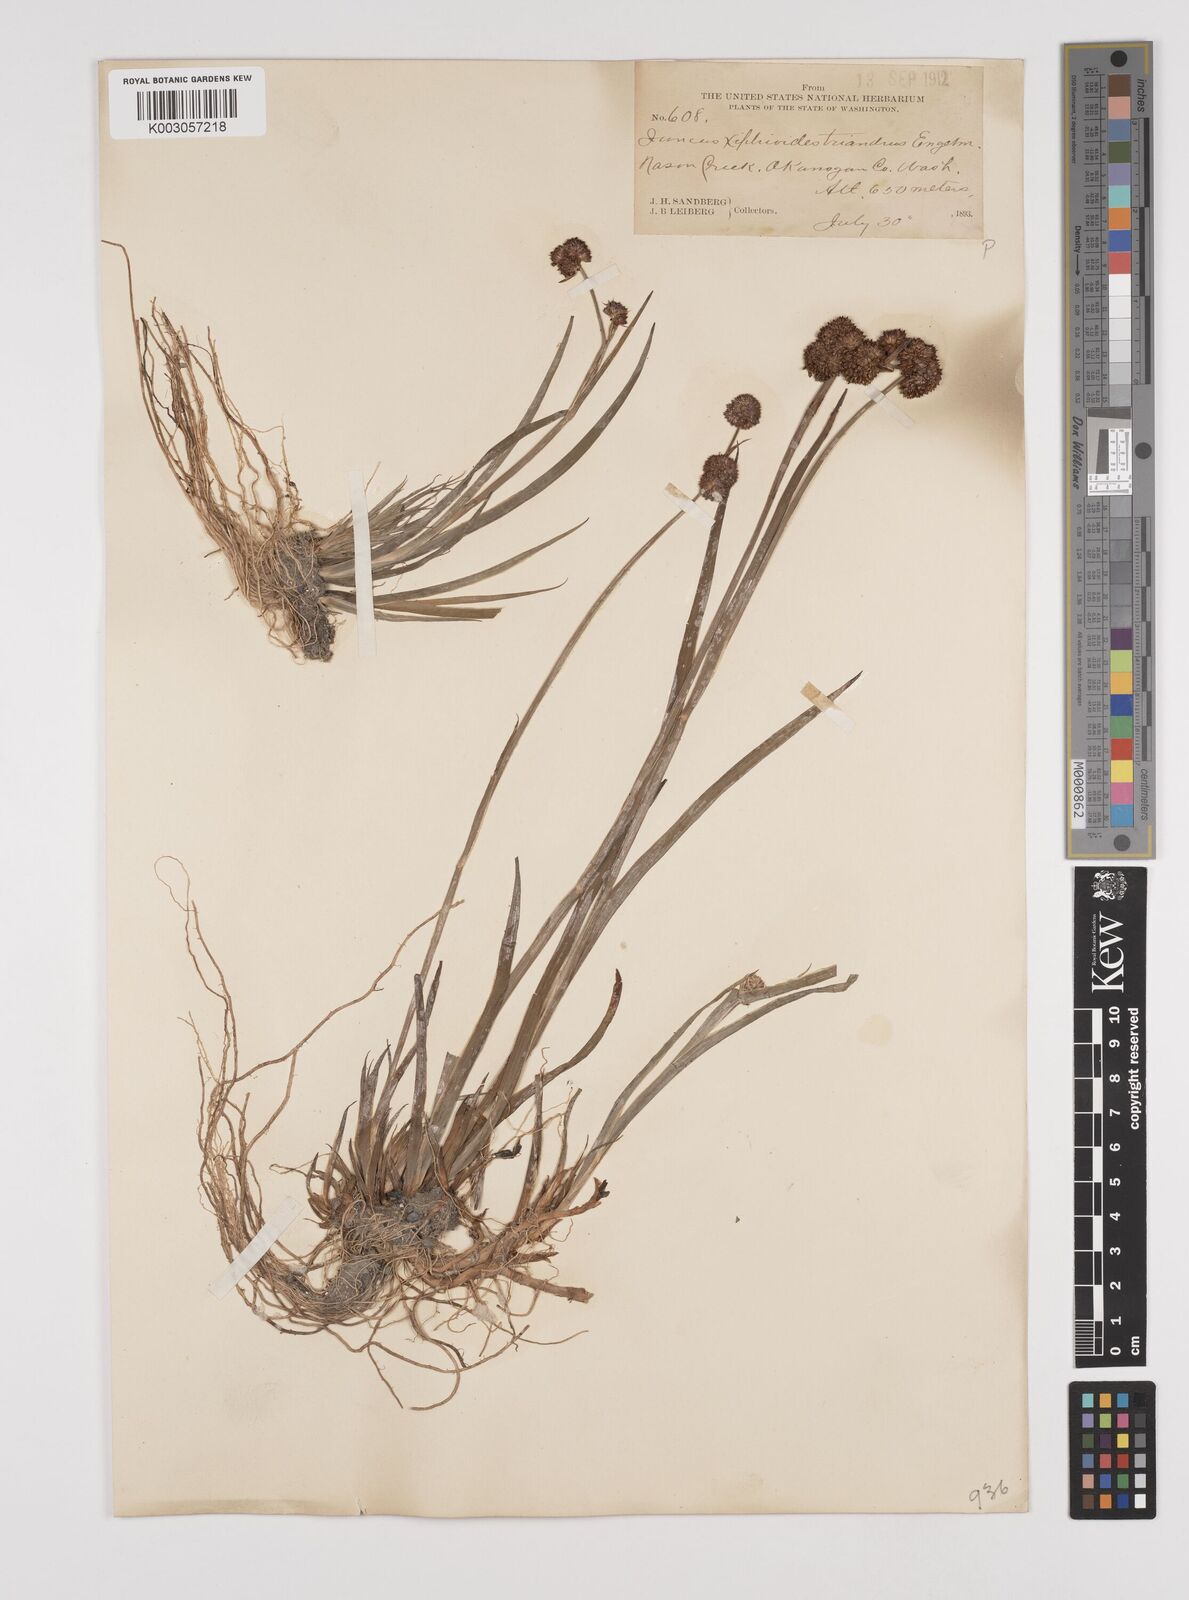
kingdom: Plantae
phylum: Tracheophyta
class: Liliopsida
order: Poales
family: Juncaceae
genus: Juncus
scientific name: Juncus ensifolius
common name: Sword-leaved rush
